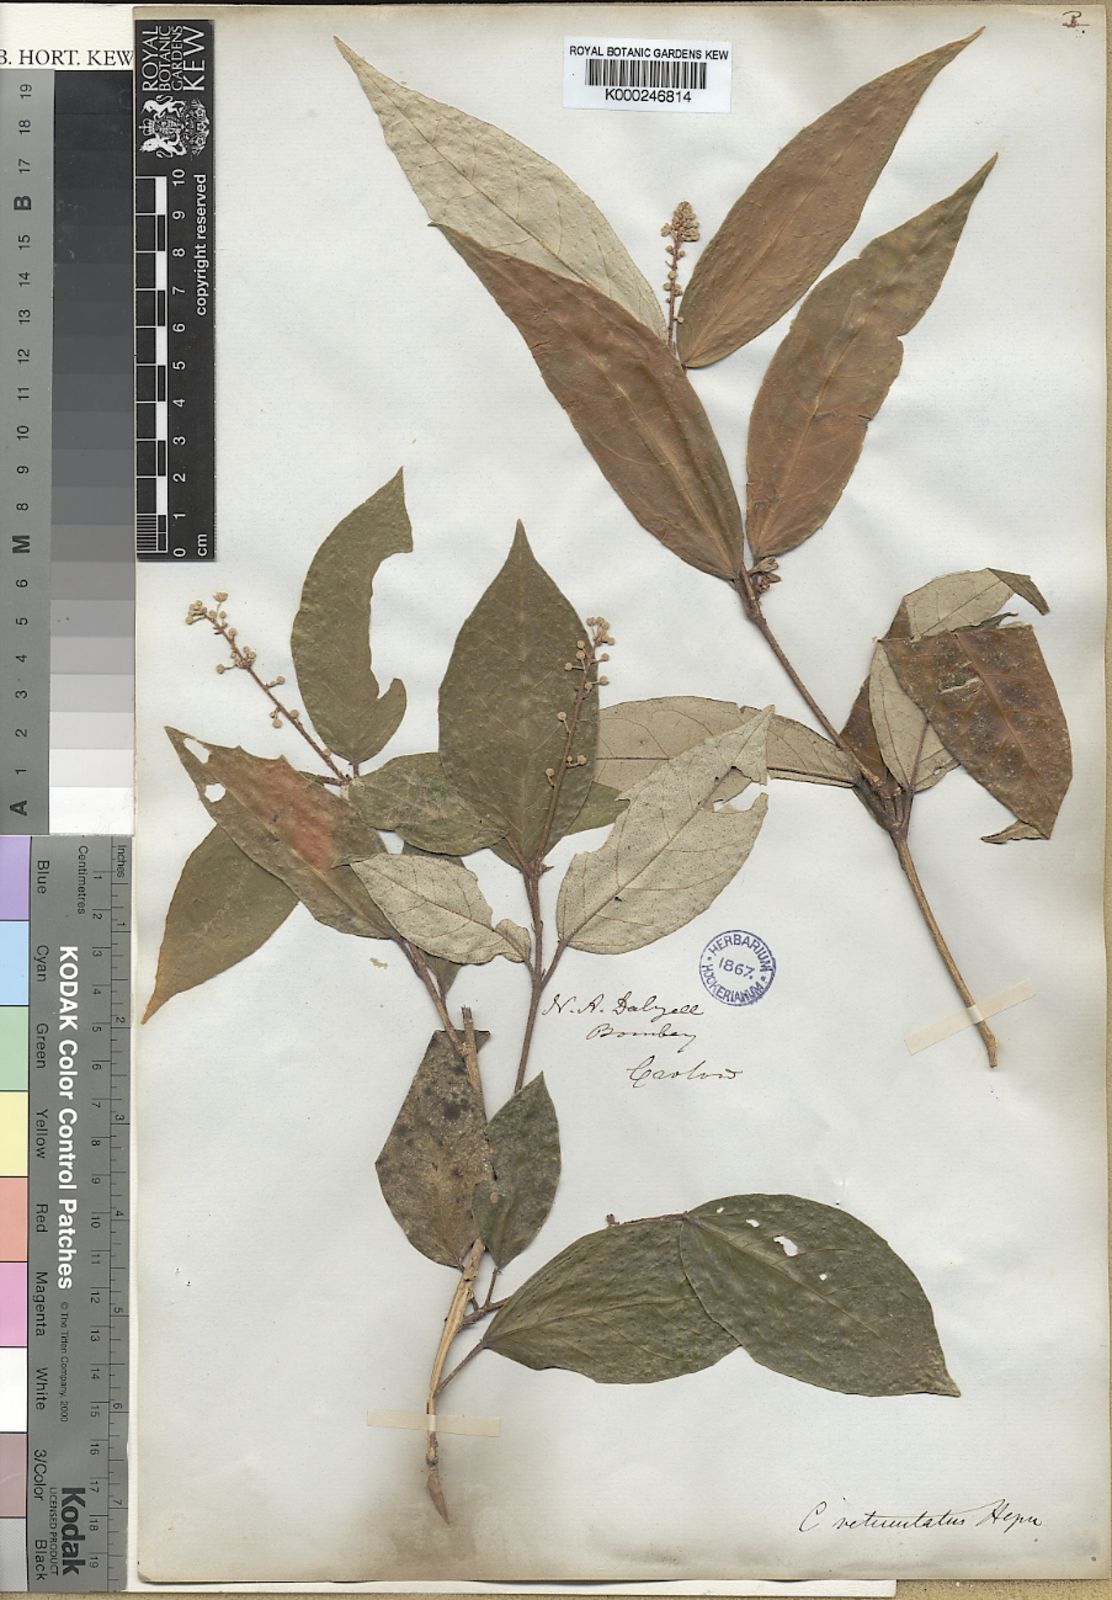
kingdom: Plantae
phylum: Tracheophyta
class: Magnoliopsida
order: Malpighiales
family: Euphorbiaceae
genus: Croton
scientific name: Croton
